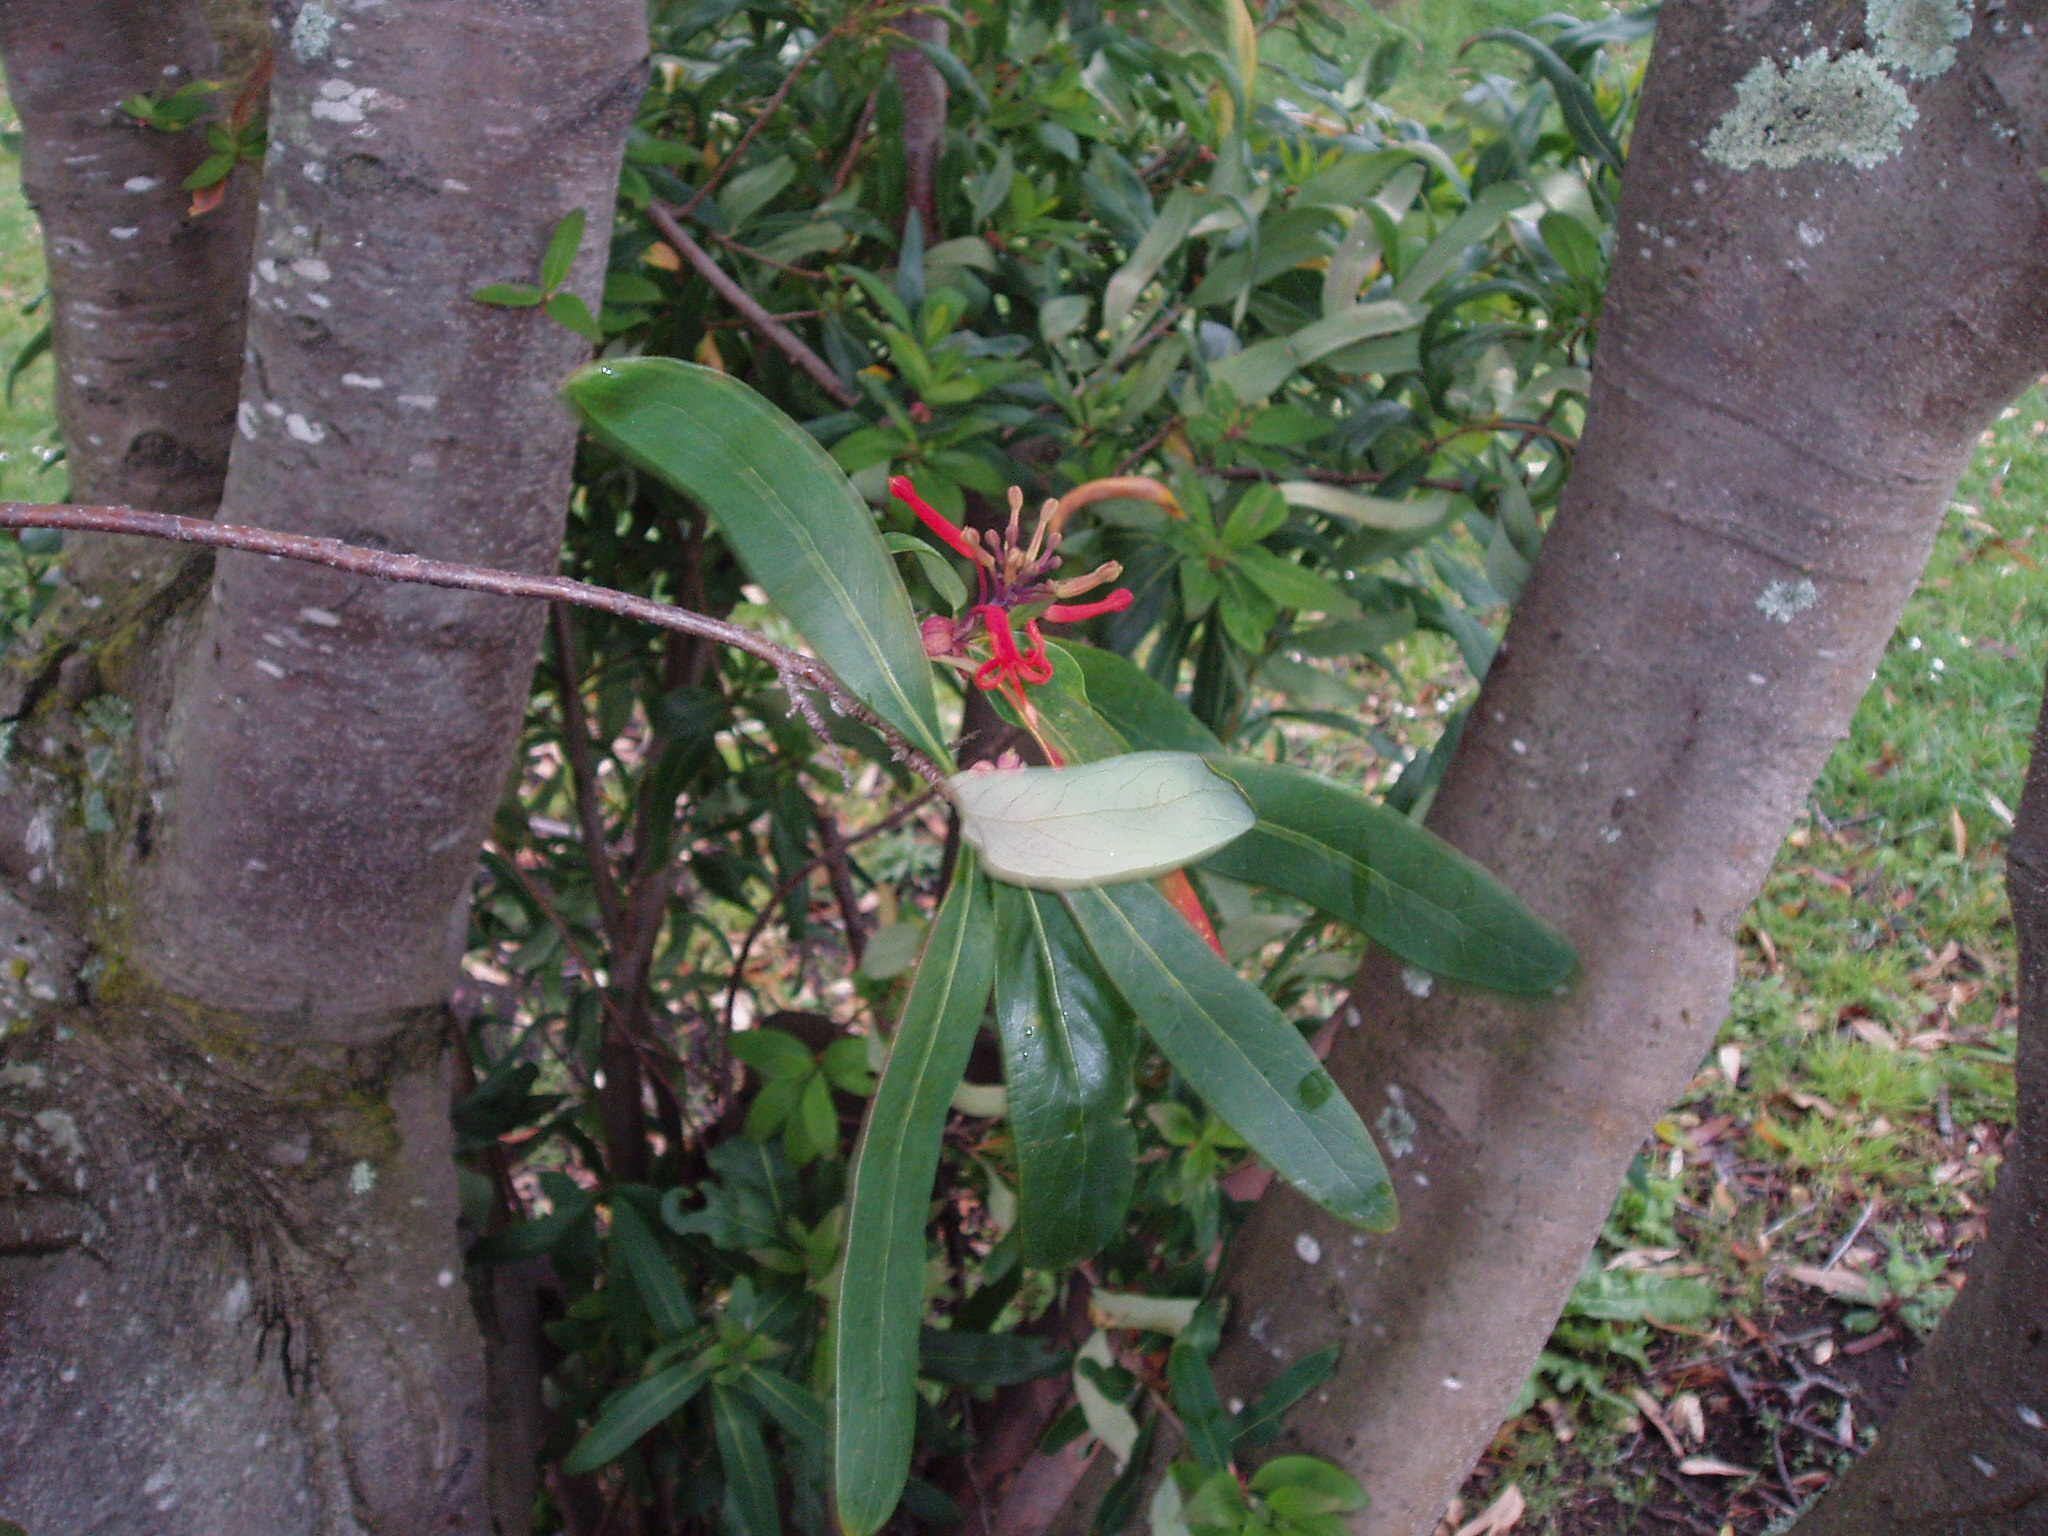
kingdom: Plantae
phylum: Tracheophyta
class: Magnoliopsida
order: Proteales
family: Proteaceae
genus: Embothrium
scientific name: Embothrium coccineum
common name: Chilean firebush
